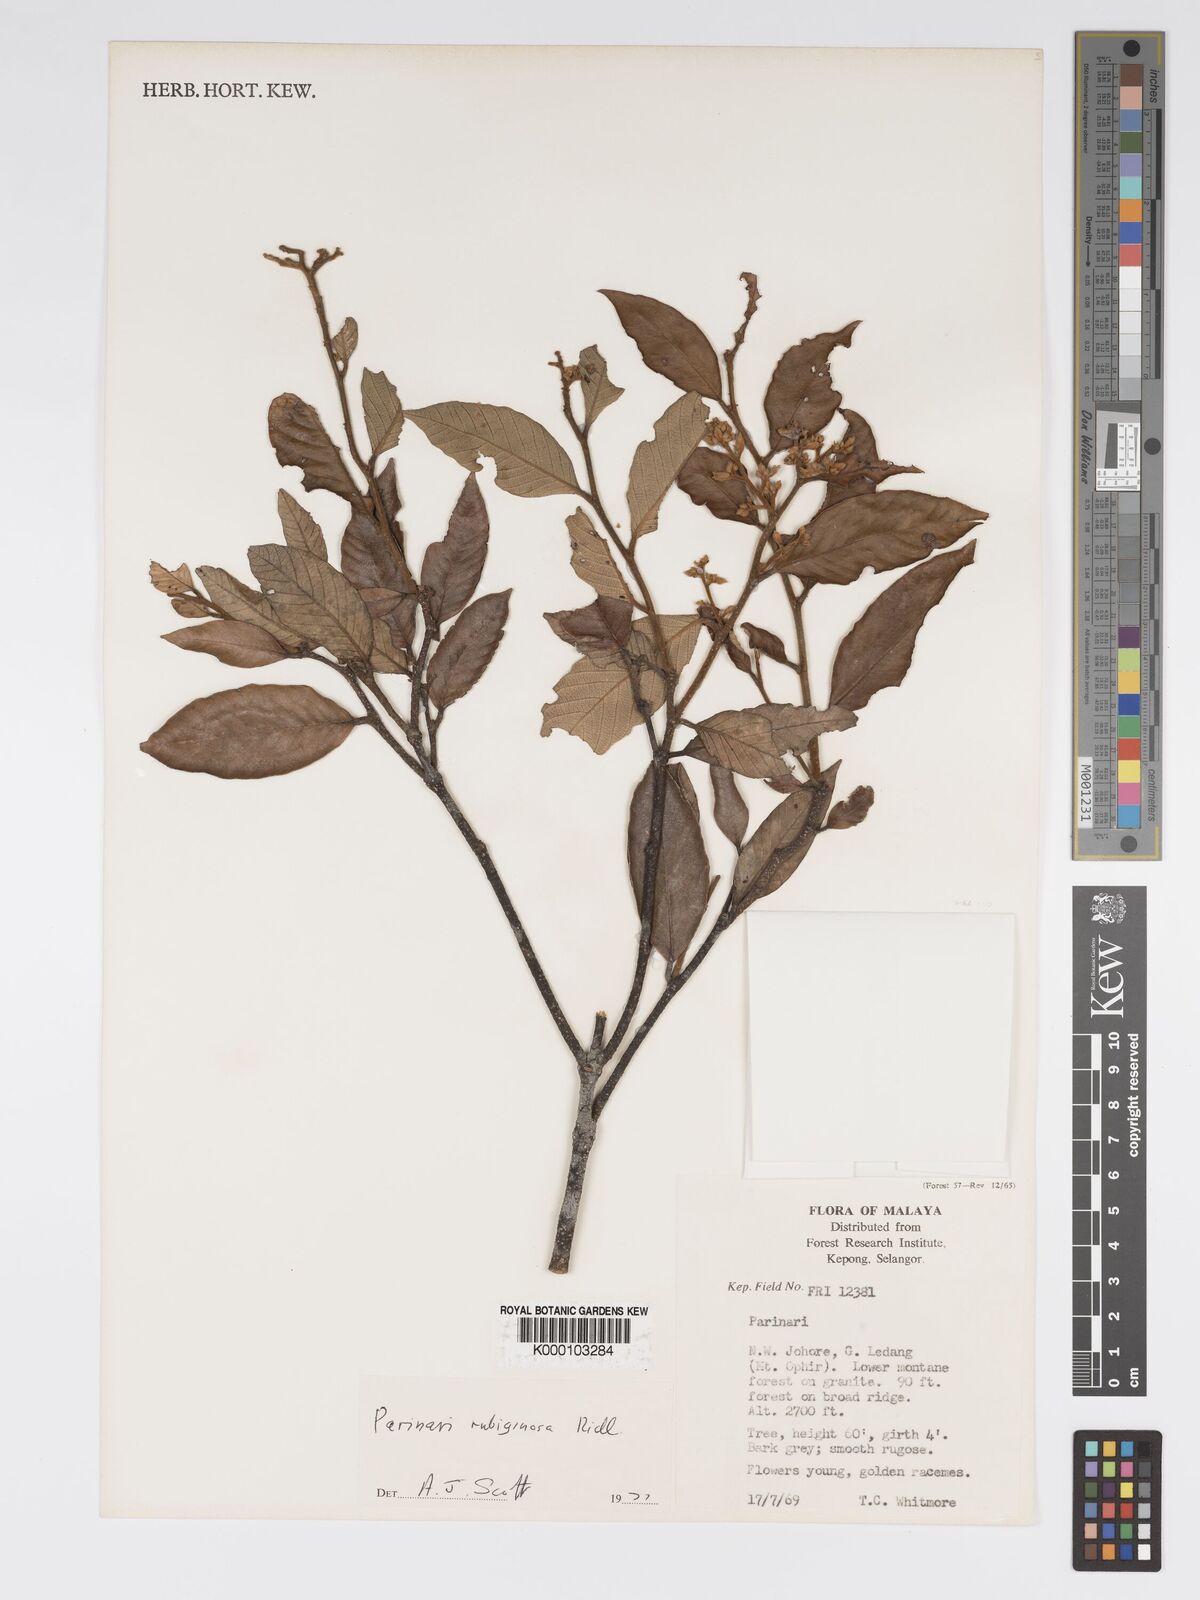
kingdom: Plantae
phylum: Tracheophyta
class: Magnoliopsida
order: Malpighiales
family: Chrysobalanaceae
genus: Parinari
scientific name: Parinari costata
